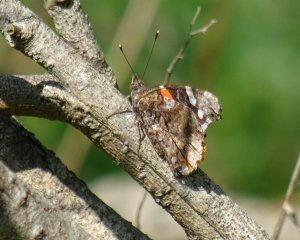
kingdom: Animalia
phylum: Arthropoda
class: Insecta
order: Lepidoptera
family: Nymphalidae
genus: Vanessa
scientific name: Vanessa atalanta
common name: Red Admiral
